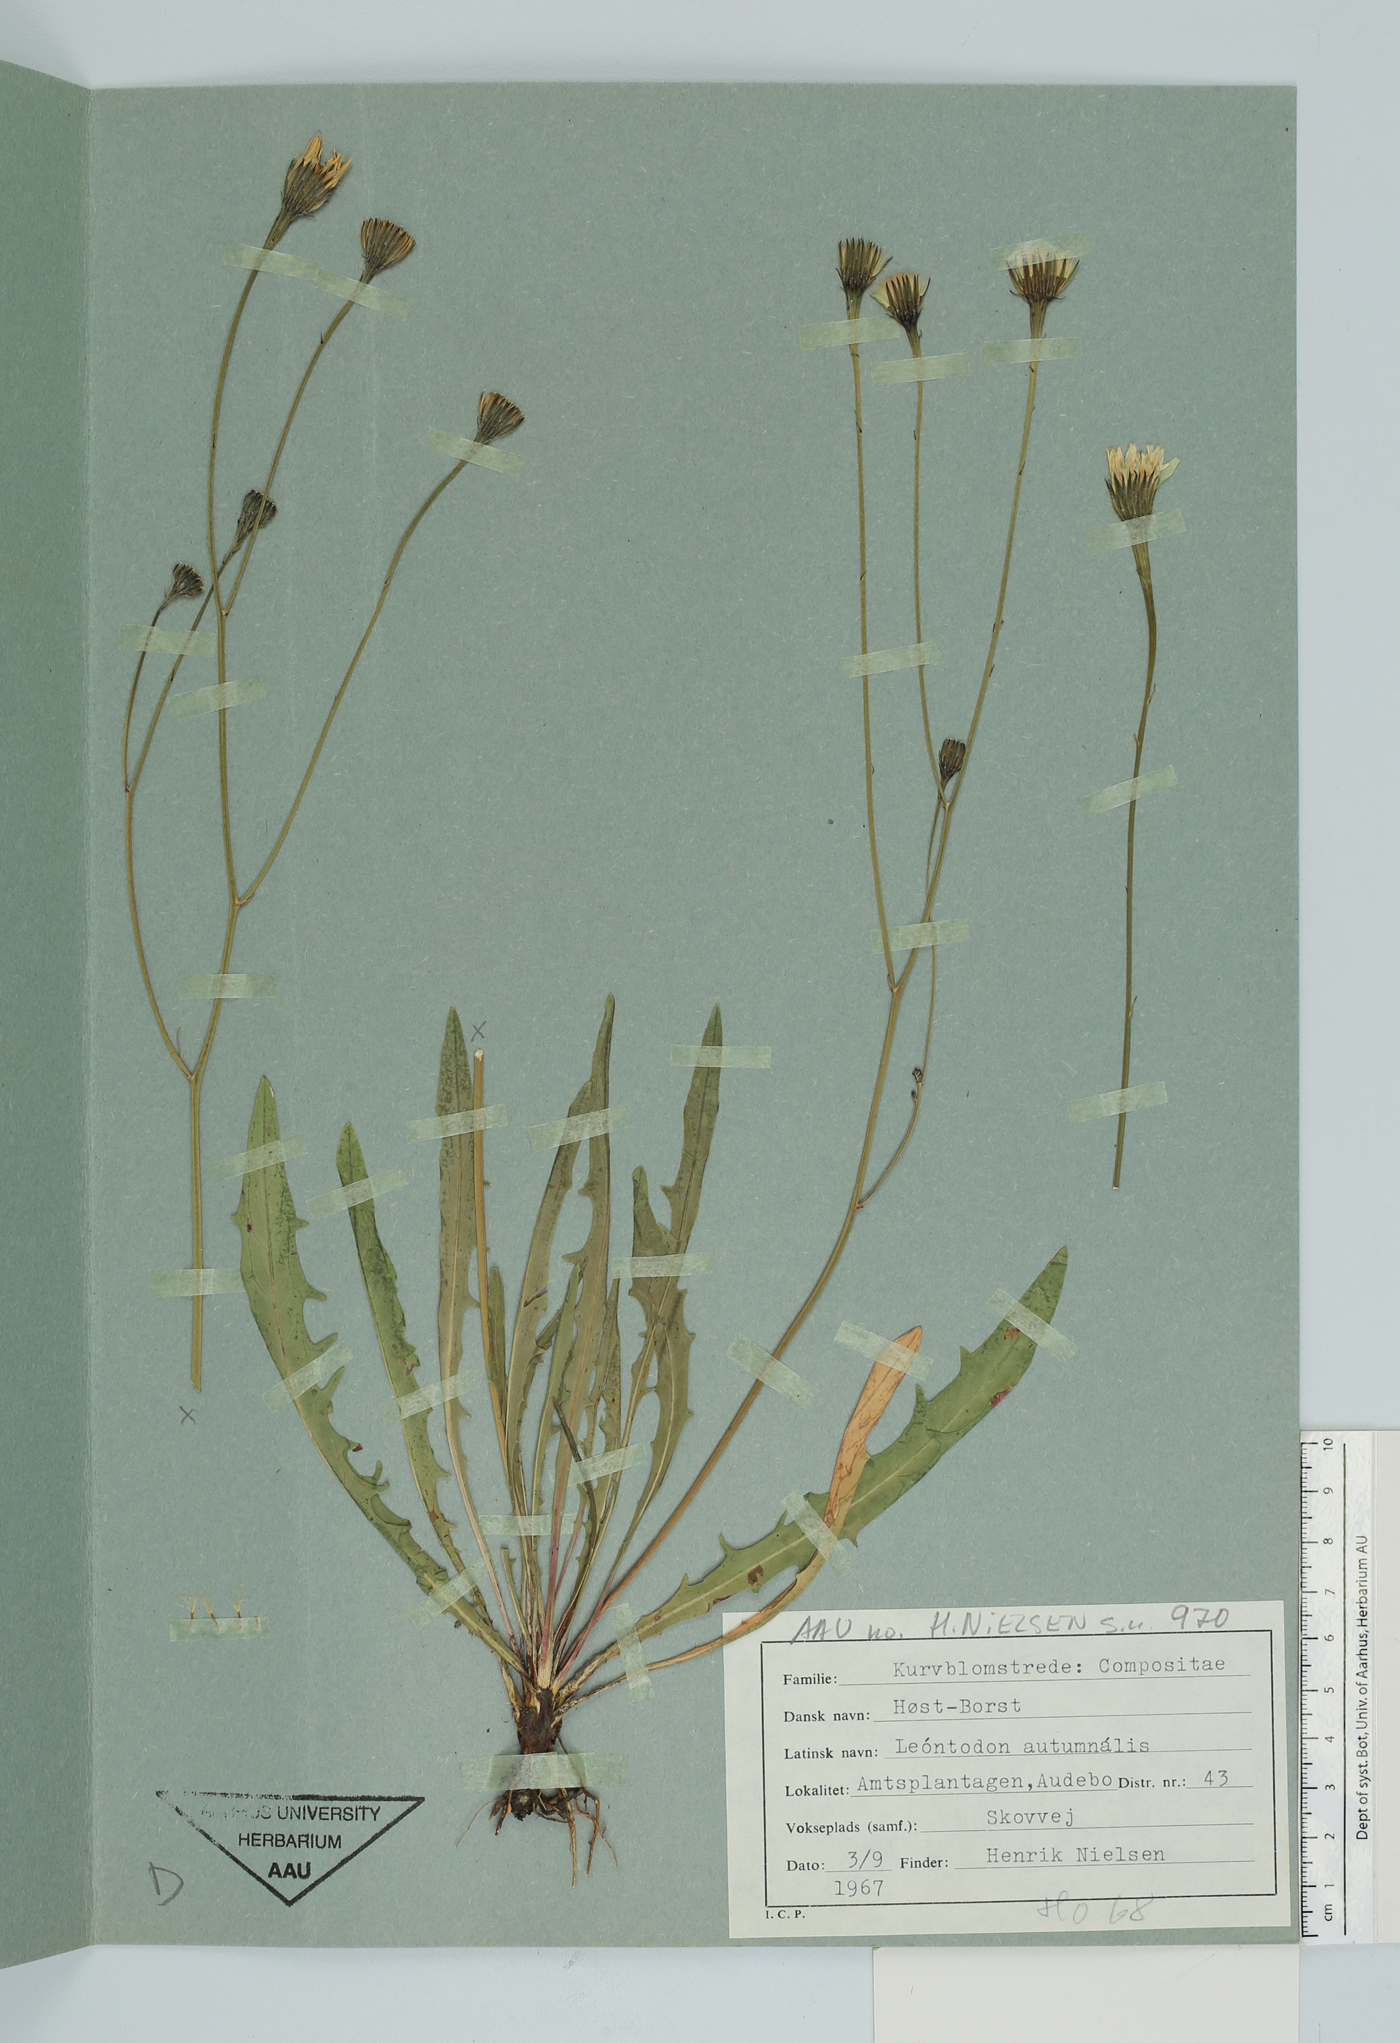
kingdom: Plantae
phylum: Tracheophyta
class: Magnoliopsida
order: Asterales
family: Asteraceae
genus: Scorzoneroides
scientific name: Scorzoneroides autumnalis
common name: Autumn hawkbit
